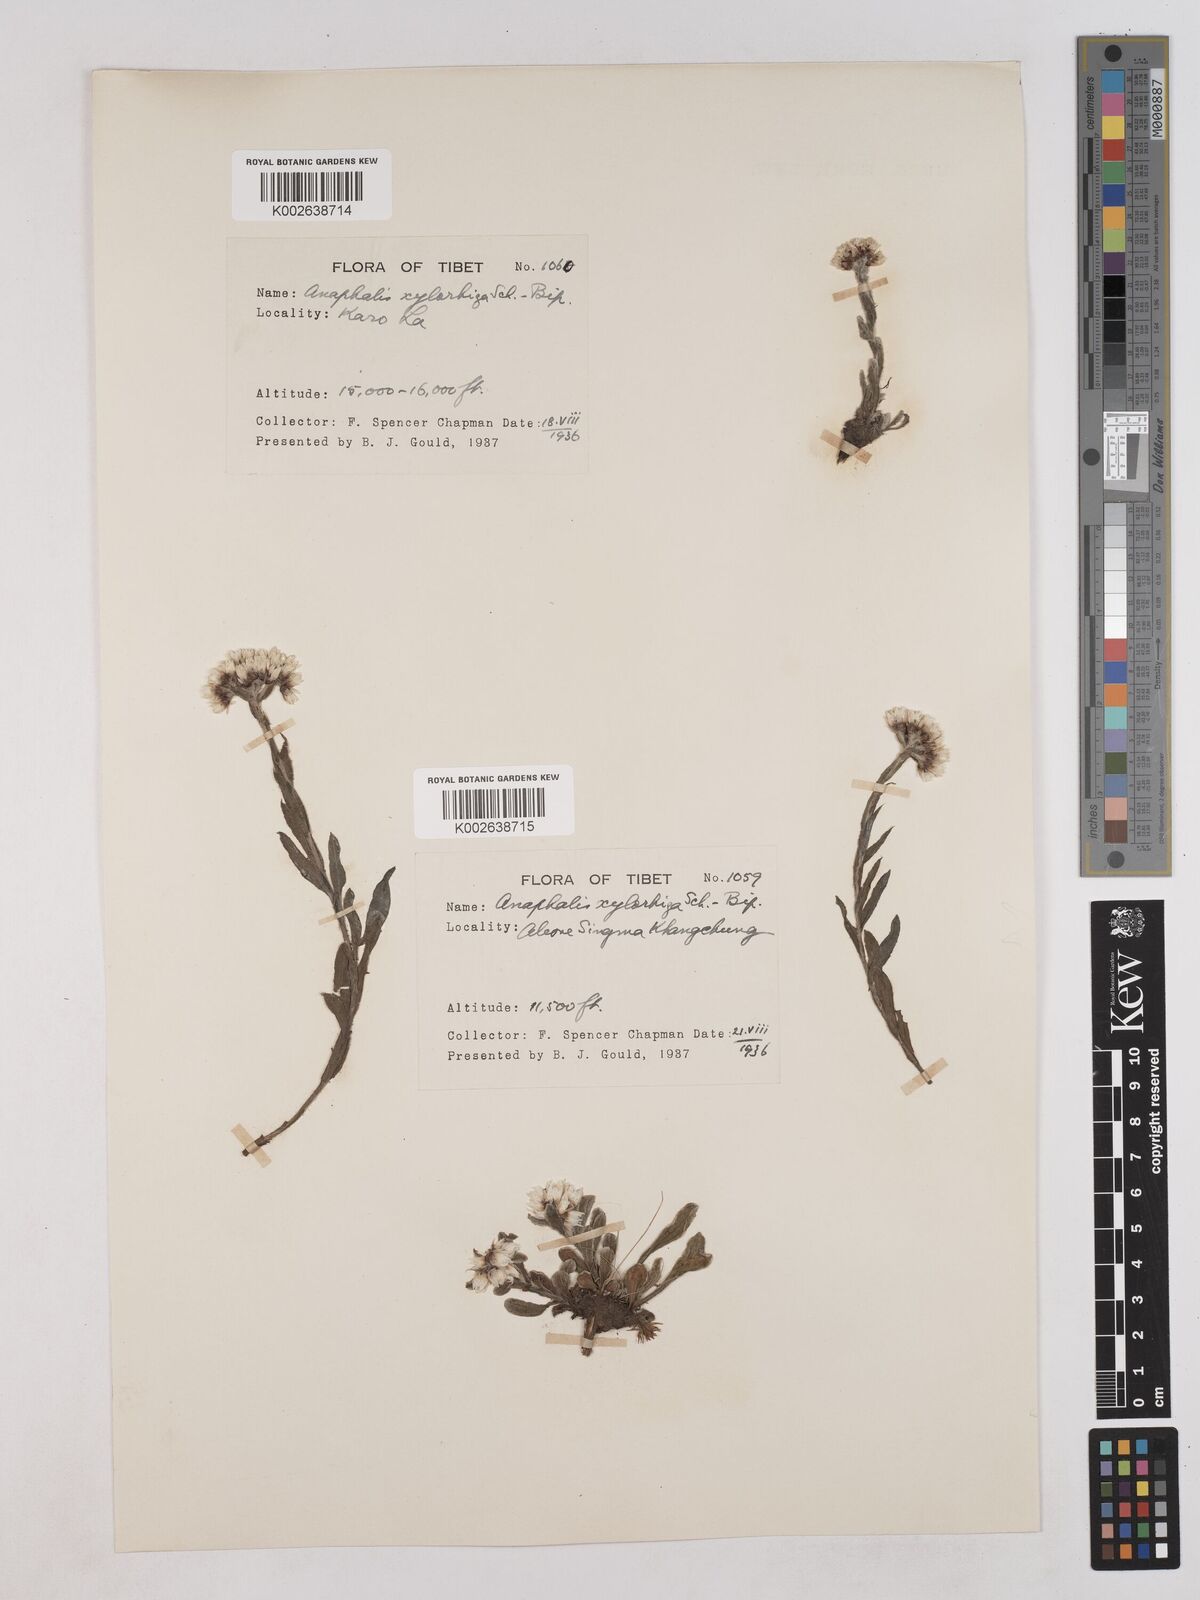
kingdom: Plantae
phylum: Tracheophyta
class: Magnoliopsida
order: Asterales
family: Asteraceae
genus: Anaphalis
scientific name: Anaphalis xylorhiza
